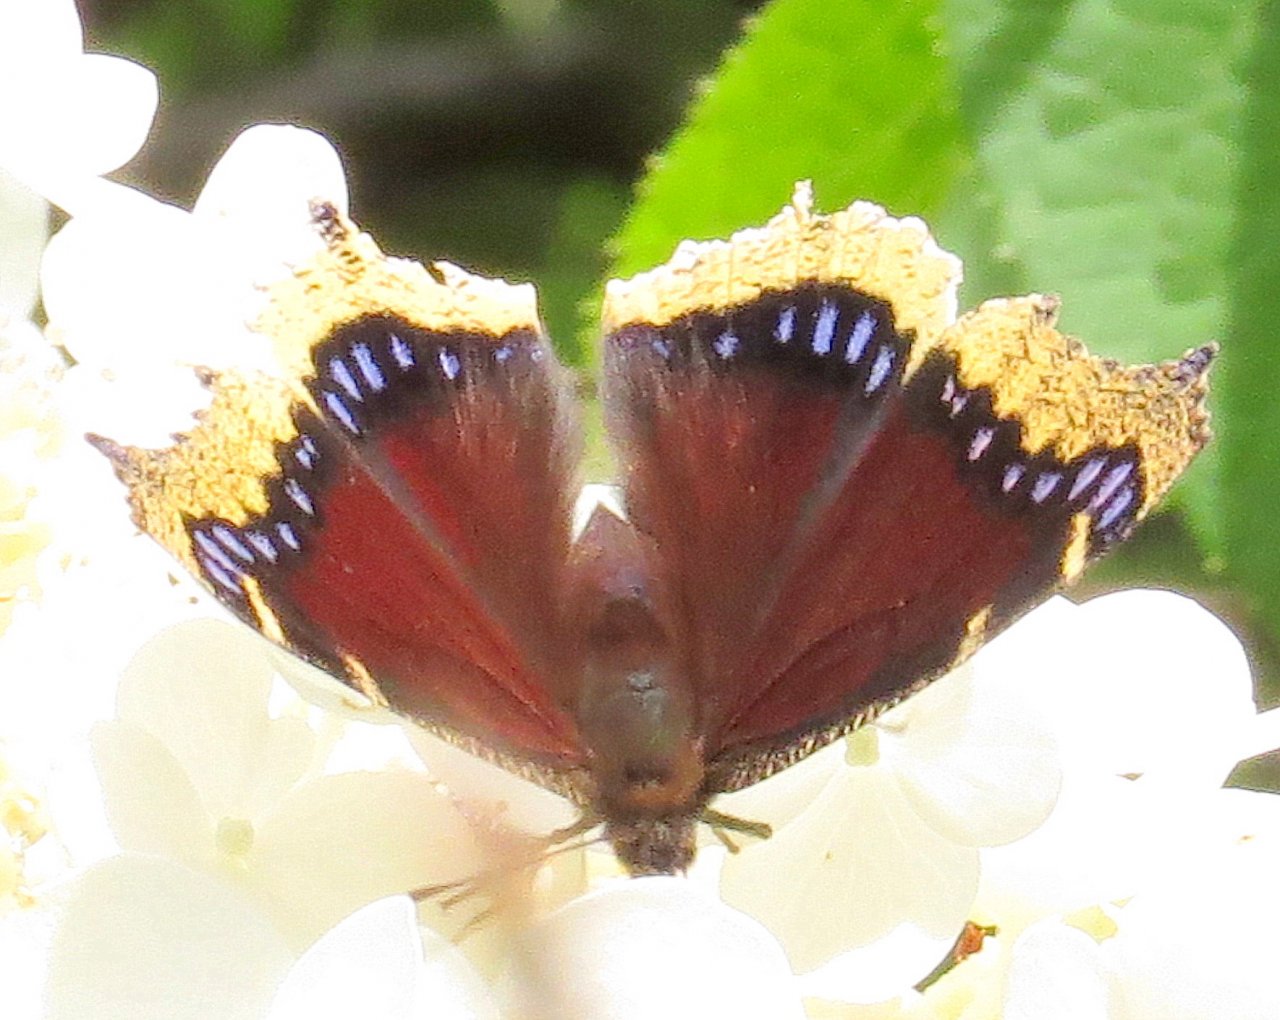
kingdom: Animalia
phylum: Arthropoda
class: Insecta
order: Lepidoptera
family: Nymphalidae
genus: Nymphalis
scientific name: Nymphalis antiopa
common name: Mourning Cloak
